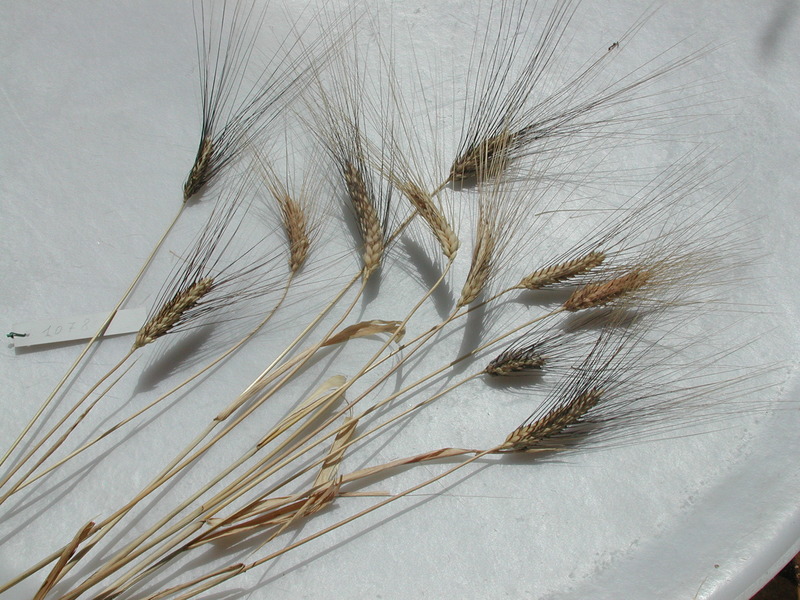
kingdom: Plantae
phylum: Tracheophyta
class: Liliopsida
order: Poales
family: Poaceae
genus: Triticum
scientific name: Triticum turgidum
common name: Wheat
